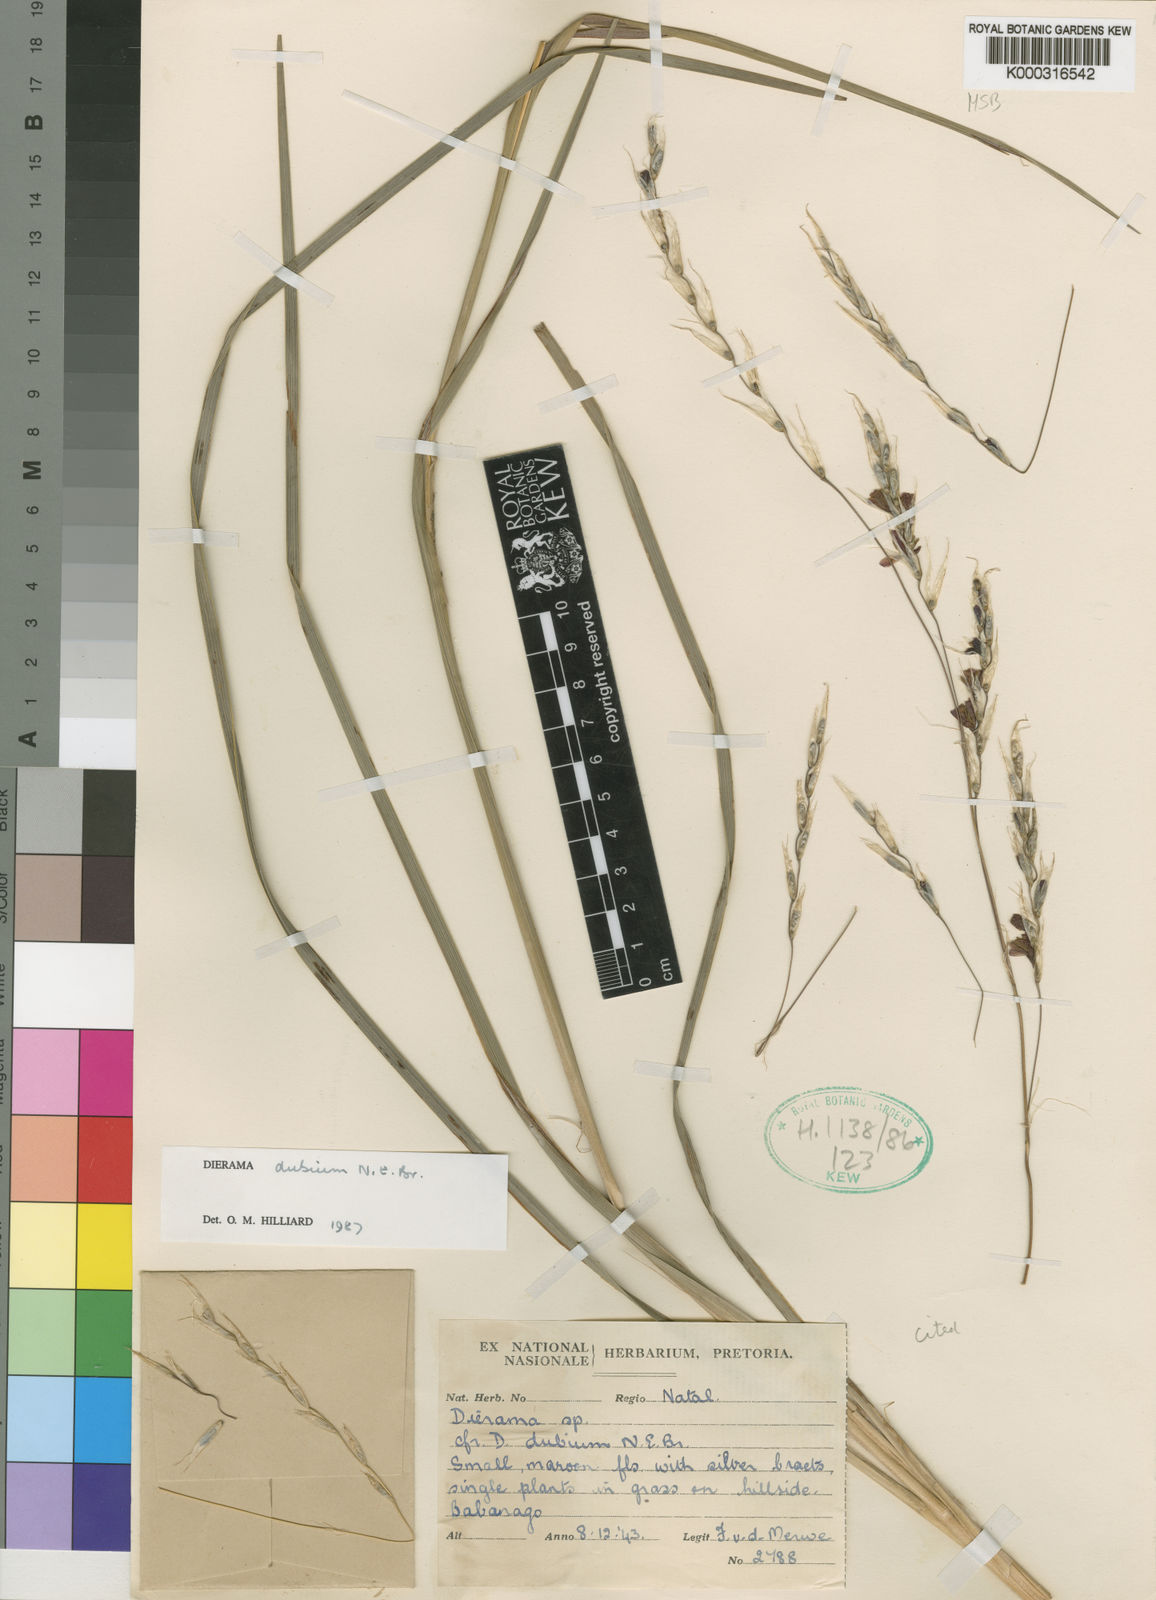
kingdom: Plantae
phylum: Tracheophyta
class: Liliopsida
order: Asparagales
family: Iridaceae
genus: Dierama
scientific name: Dierama dubium
